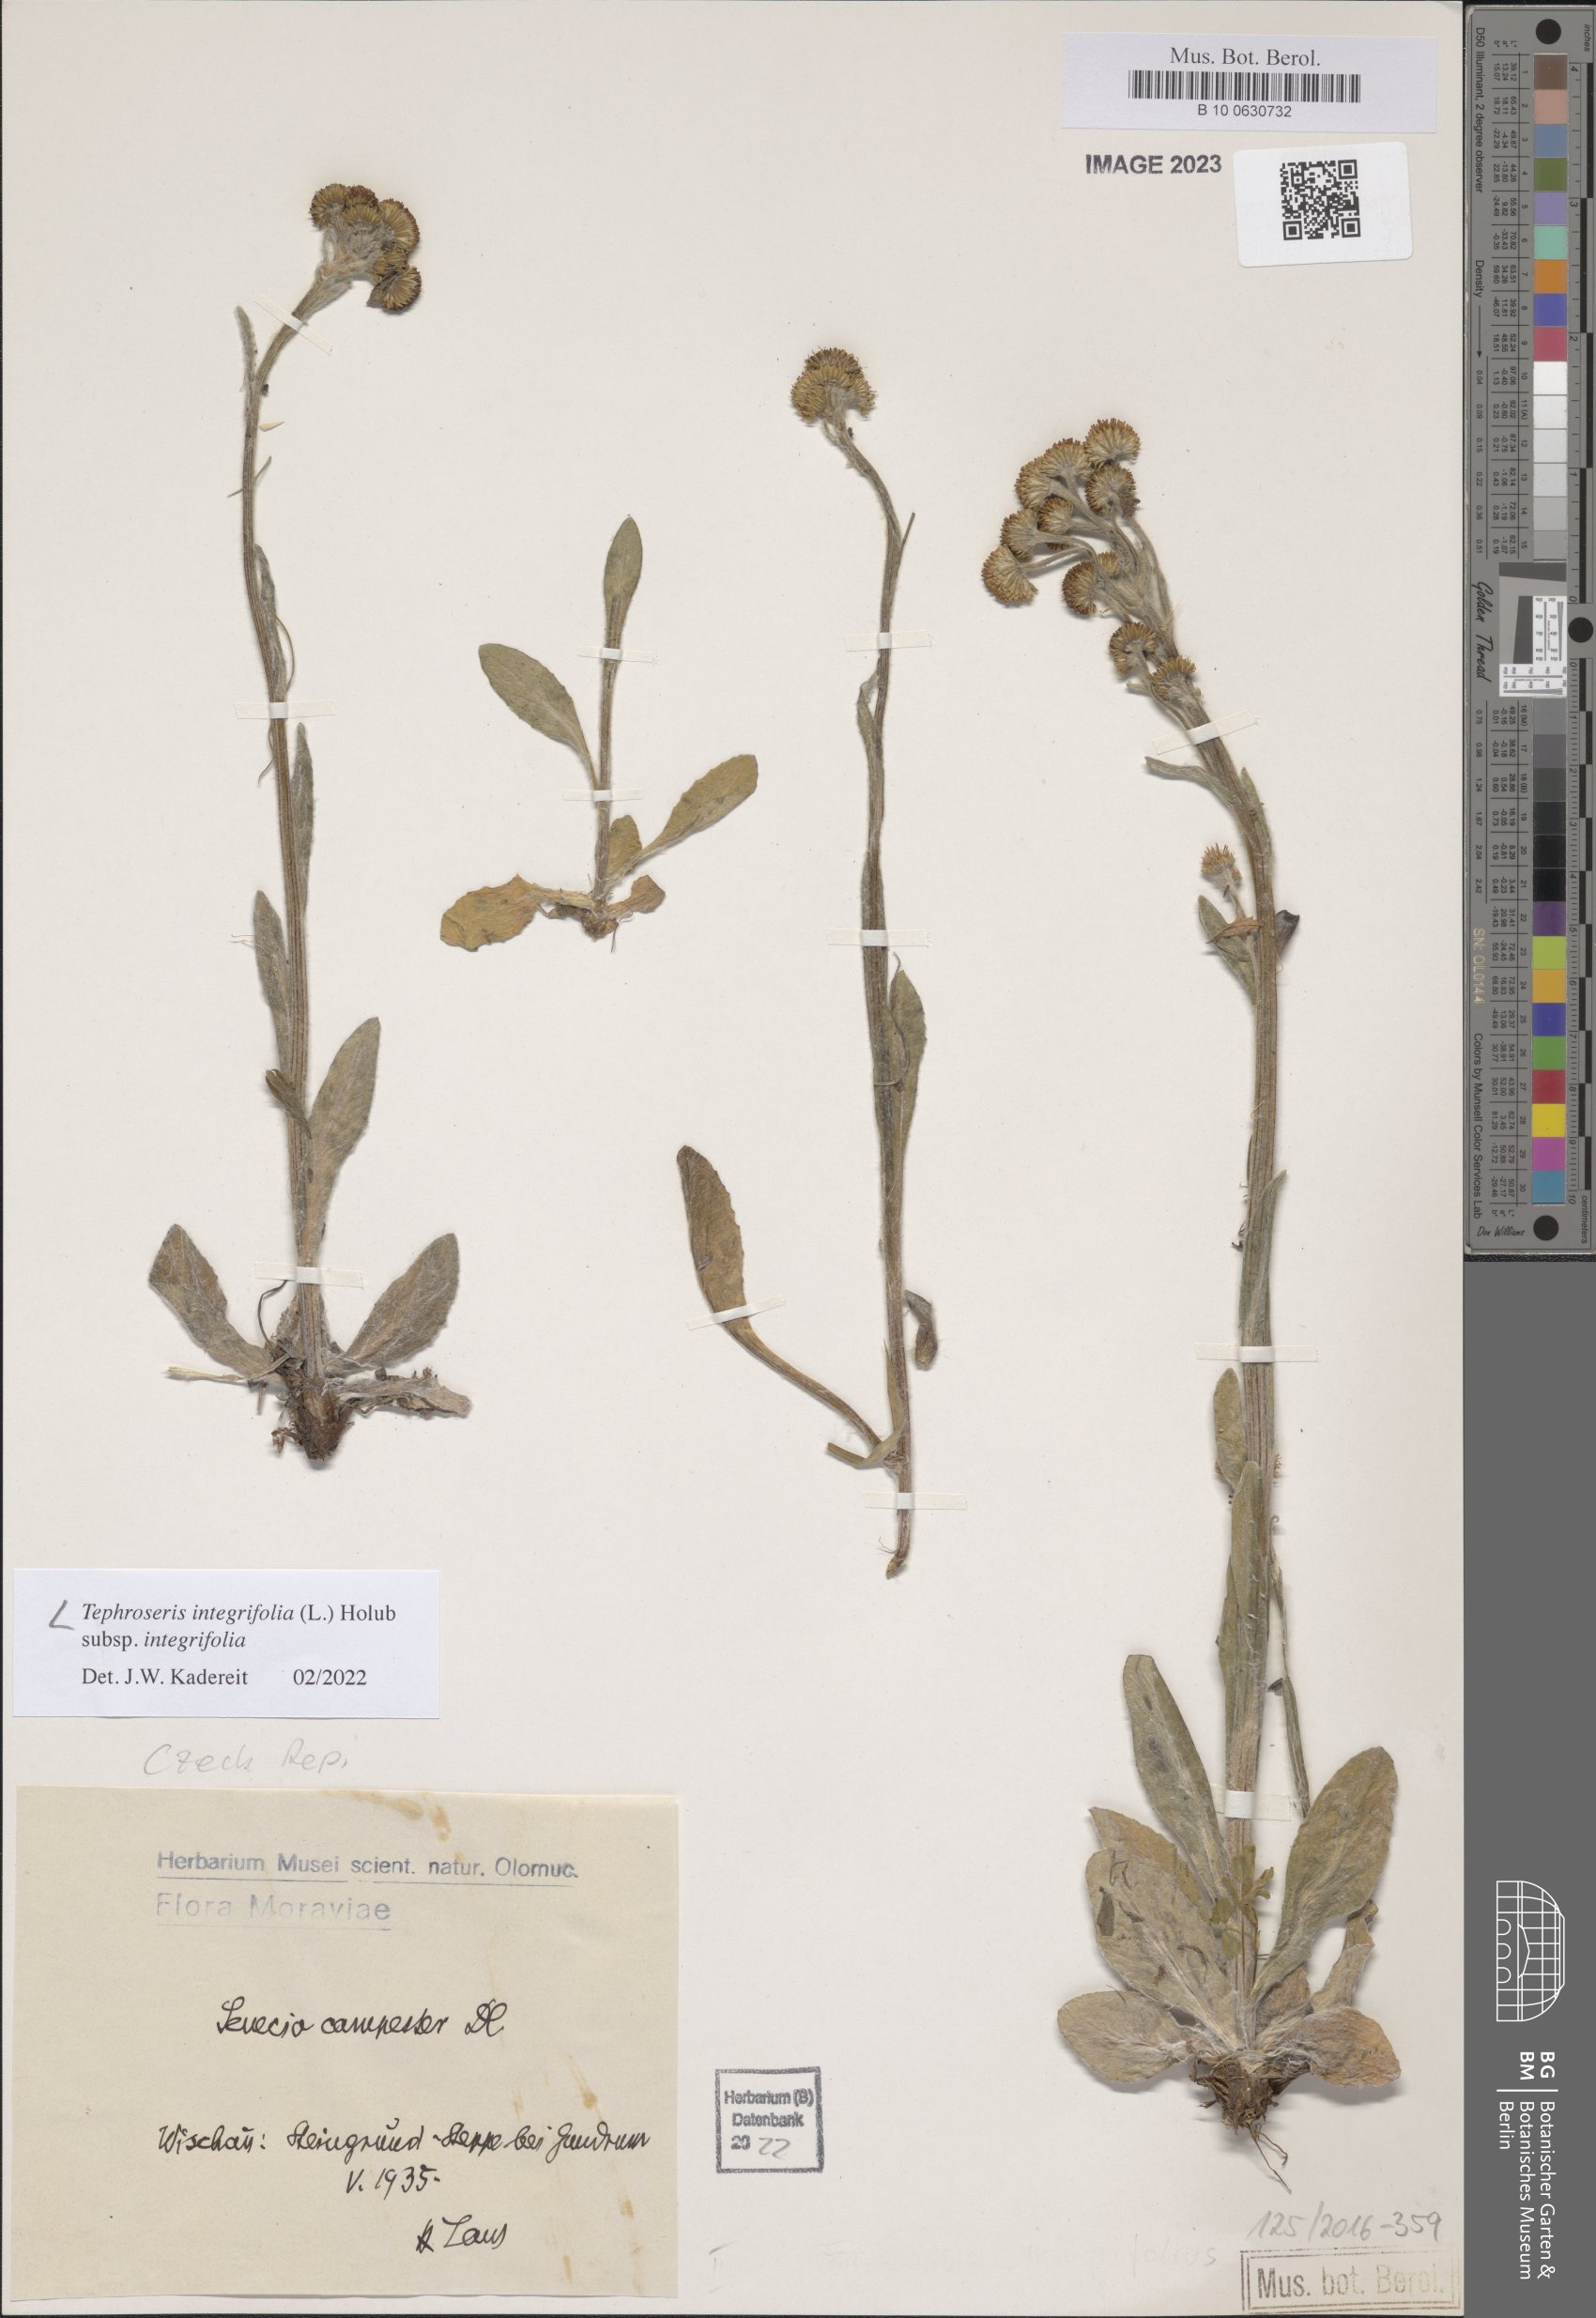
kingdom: Plantae
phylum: Tracheophyta
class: Magnoliopsida
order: Asterales
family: Asteraceae
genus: Tephroseris
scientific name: Tephroseris integrifolia
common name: Field fleawort
